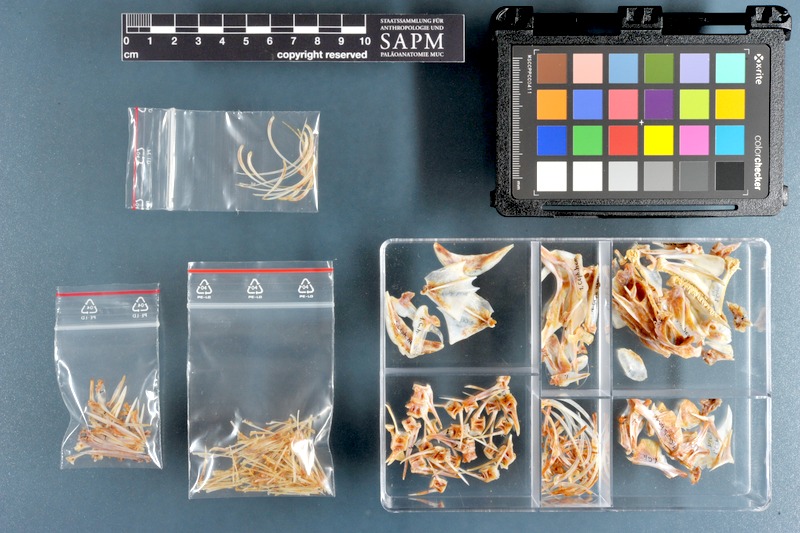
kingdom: Animalia
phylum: Chordata
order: Perciformes
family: Serranidae
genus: Cephalopholis
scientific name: Cephalopholis hemistiktos
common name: Halfspotted hind
